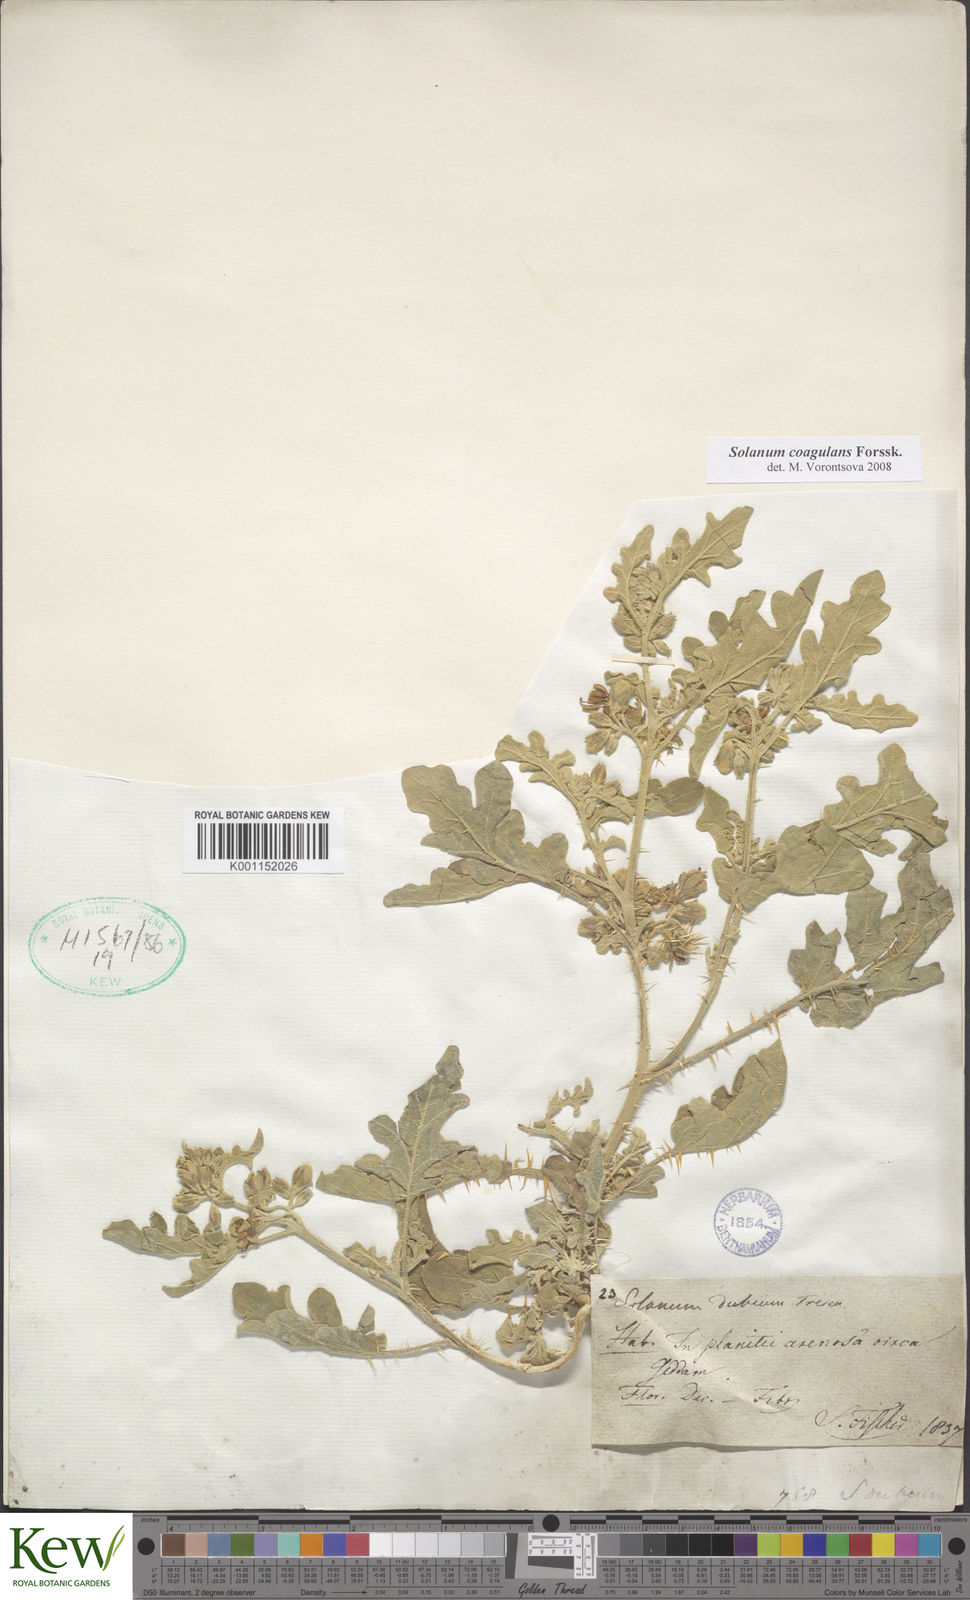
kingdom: Plantae
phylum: Tracheophyta
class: Magnoliopsida
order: Solanales
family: Solanaceae
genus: Solanum
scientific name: Solanum coagulans
